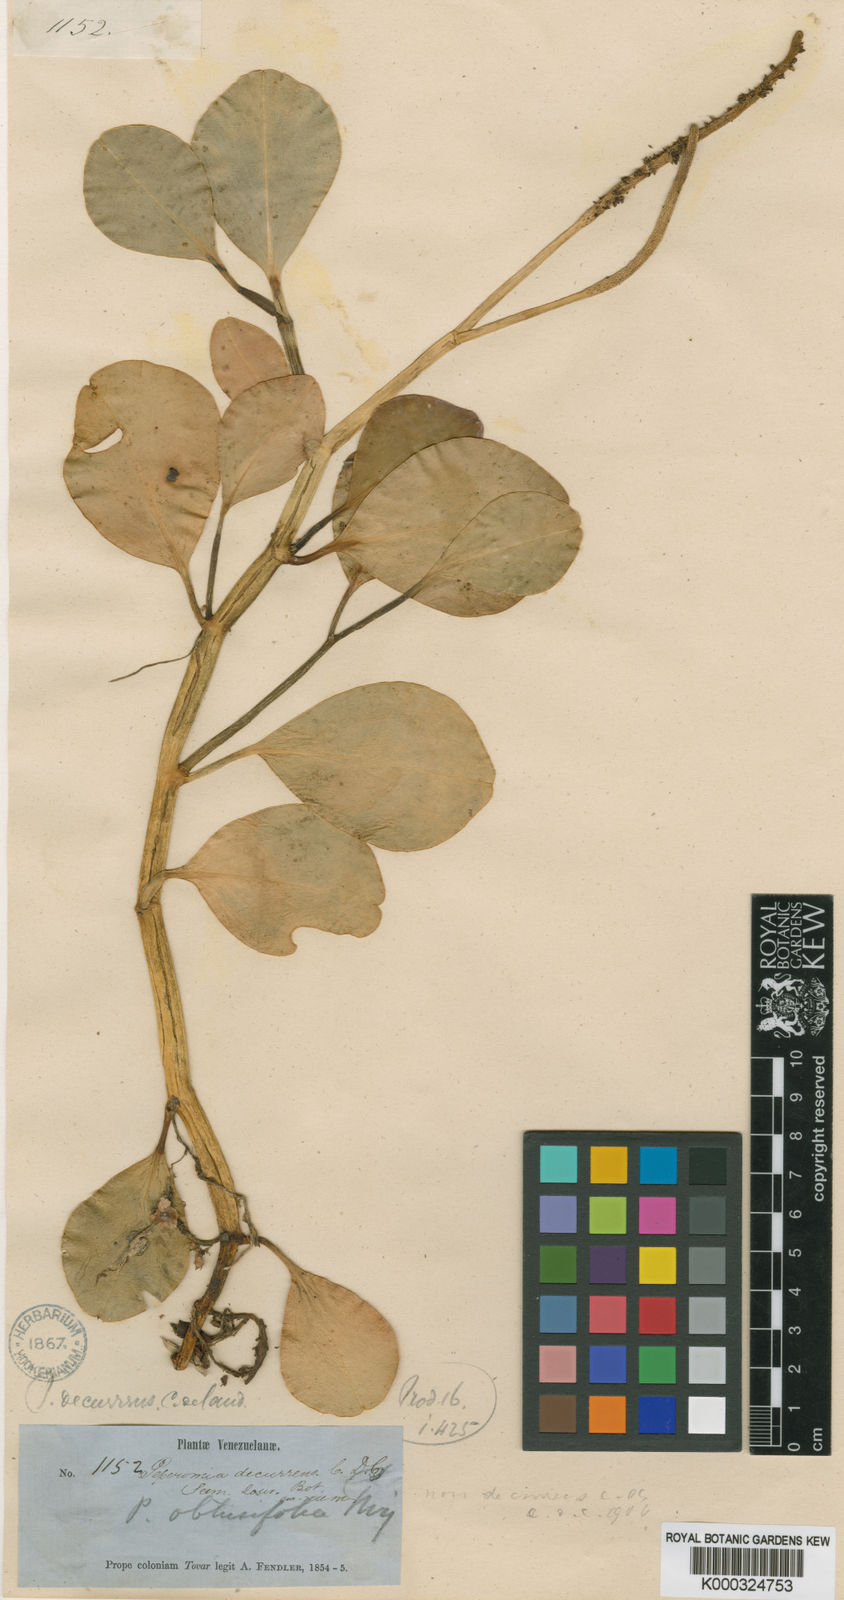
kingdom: Plantae
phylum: Tracheophyta
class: Magnoliopsida
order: Piperales
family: Piperaceae
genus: Peperomia
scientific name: Peperomia decurrens
